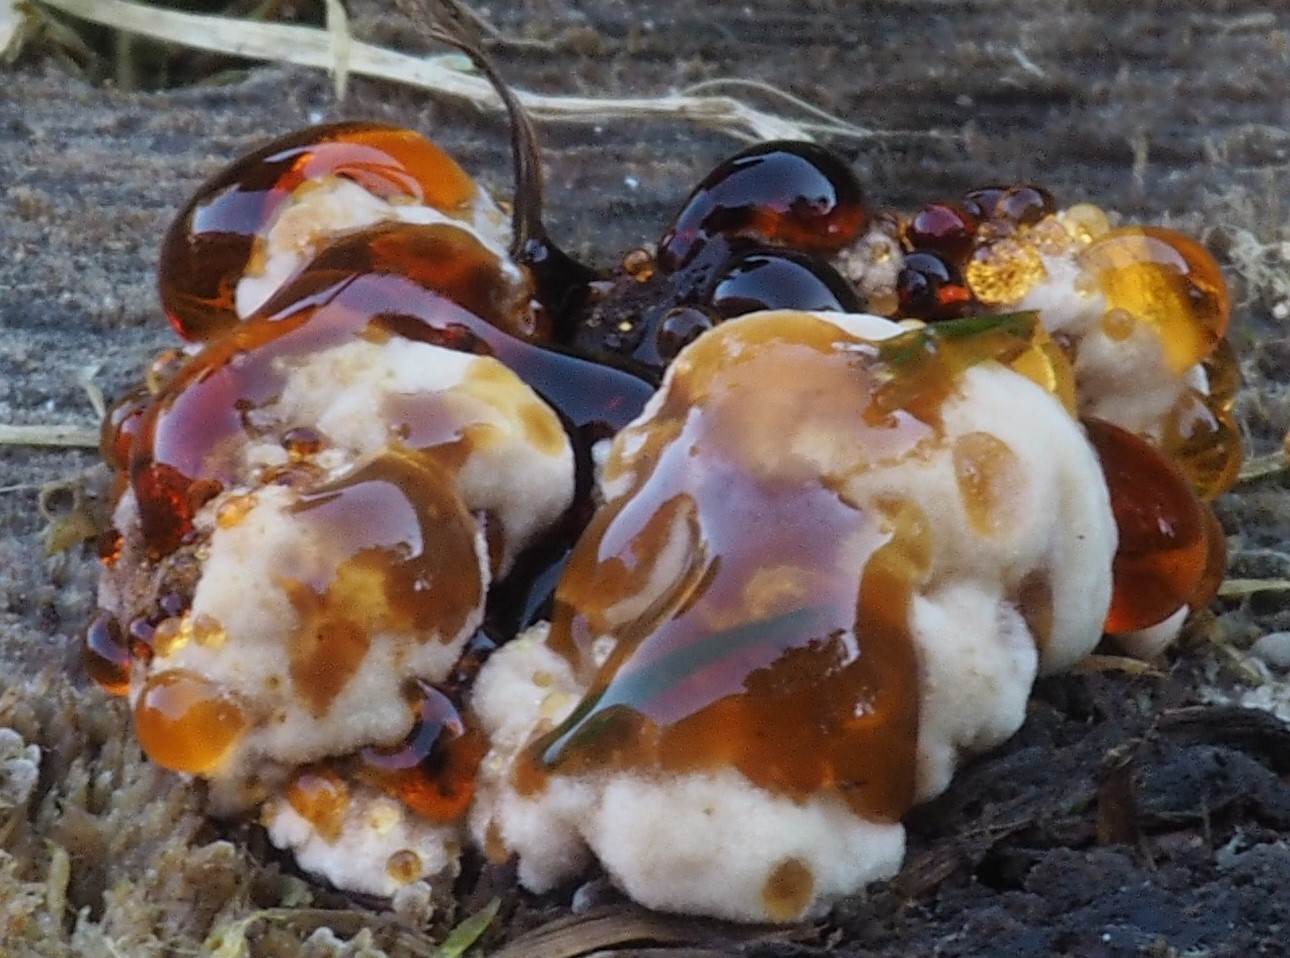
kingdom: Fungi
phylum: Basidiomycota
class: Agaricomycetes
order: Polyporales
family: Ischnodermataceae
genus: Ischnoderma
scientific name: Ischnoderma benzoinum
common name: gran-tjæreporesvamp
